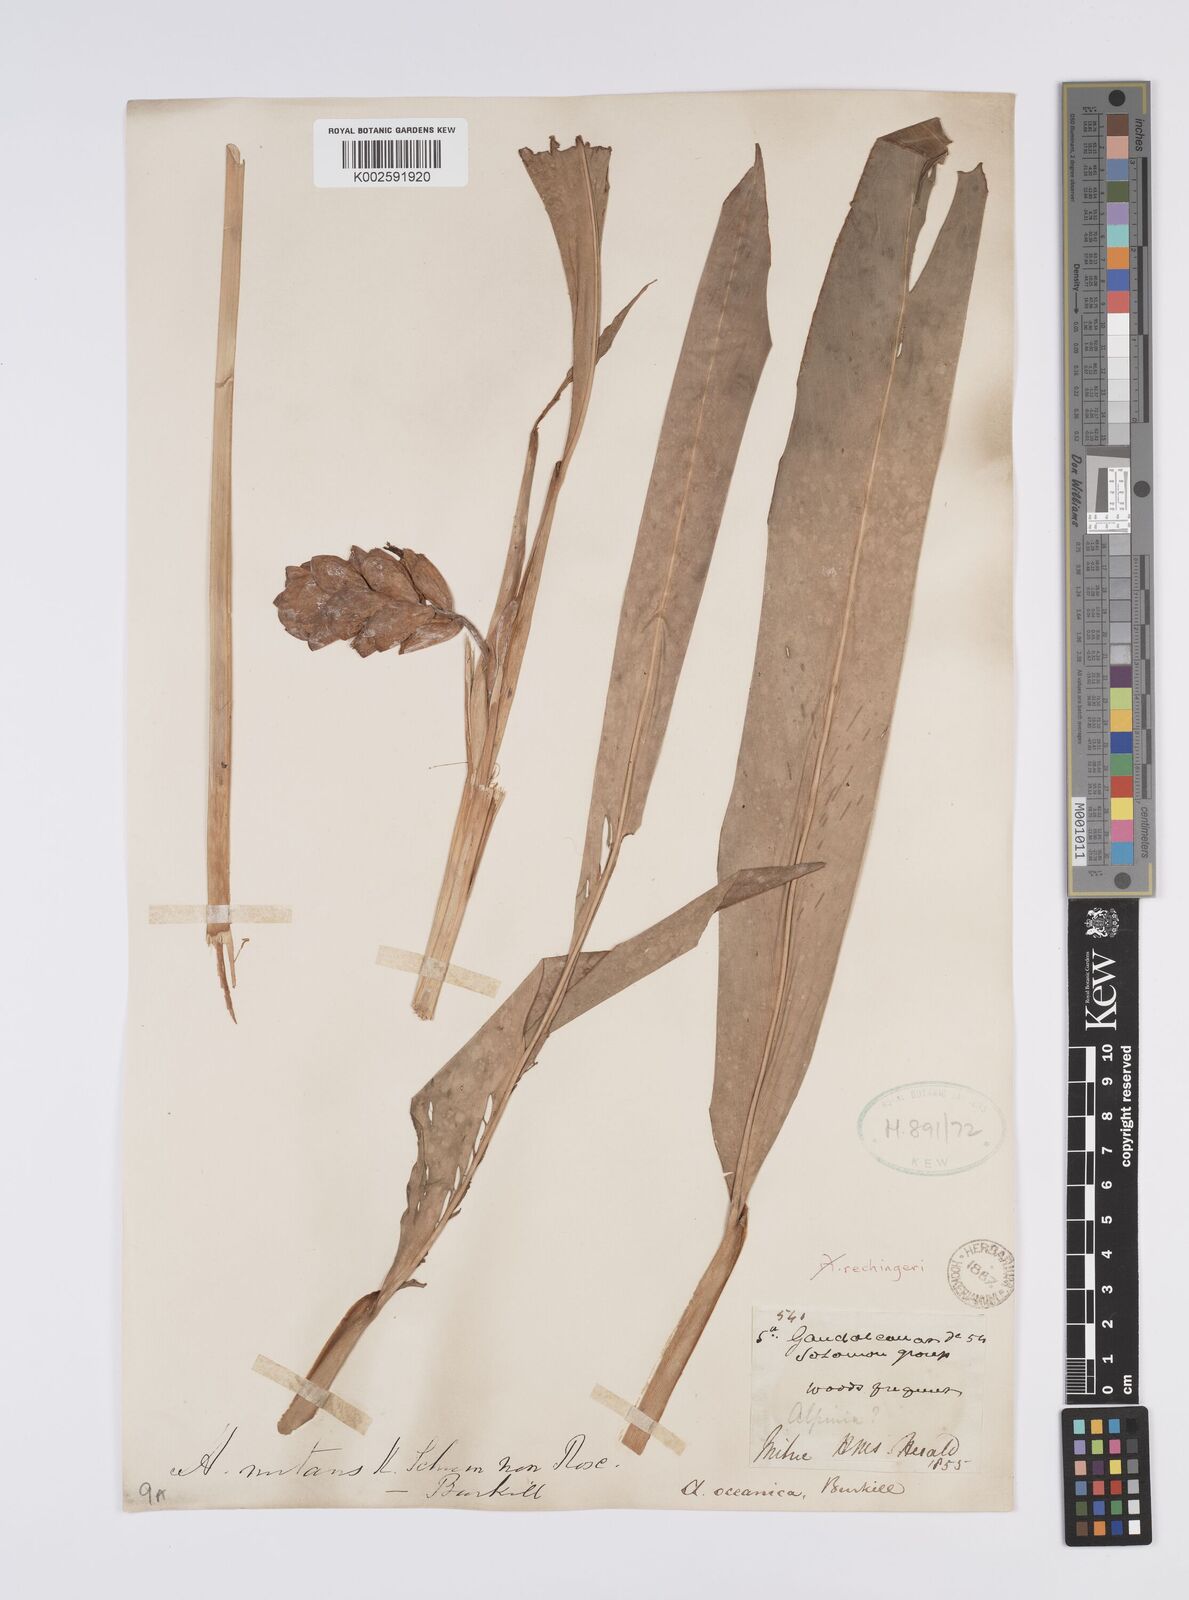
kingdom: Plantae
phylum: Tracheophyta
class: Liliopsida
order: Zingiberales
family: Zingiberaceae
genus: Alpinia
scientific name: Alpinia oceanica
